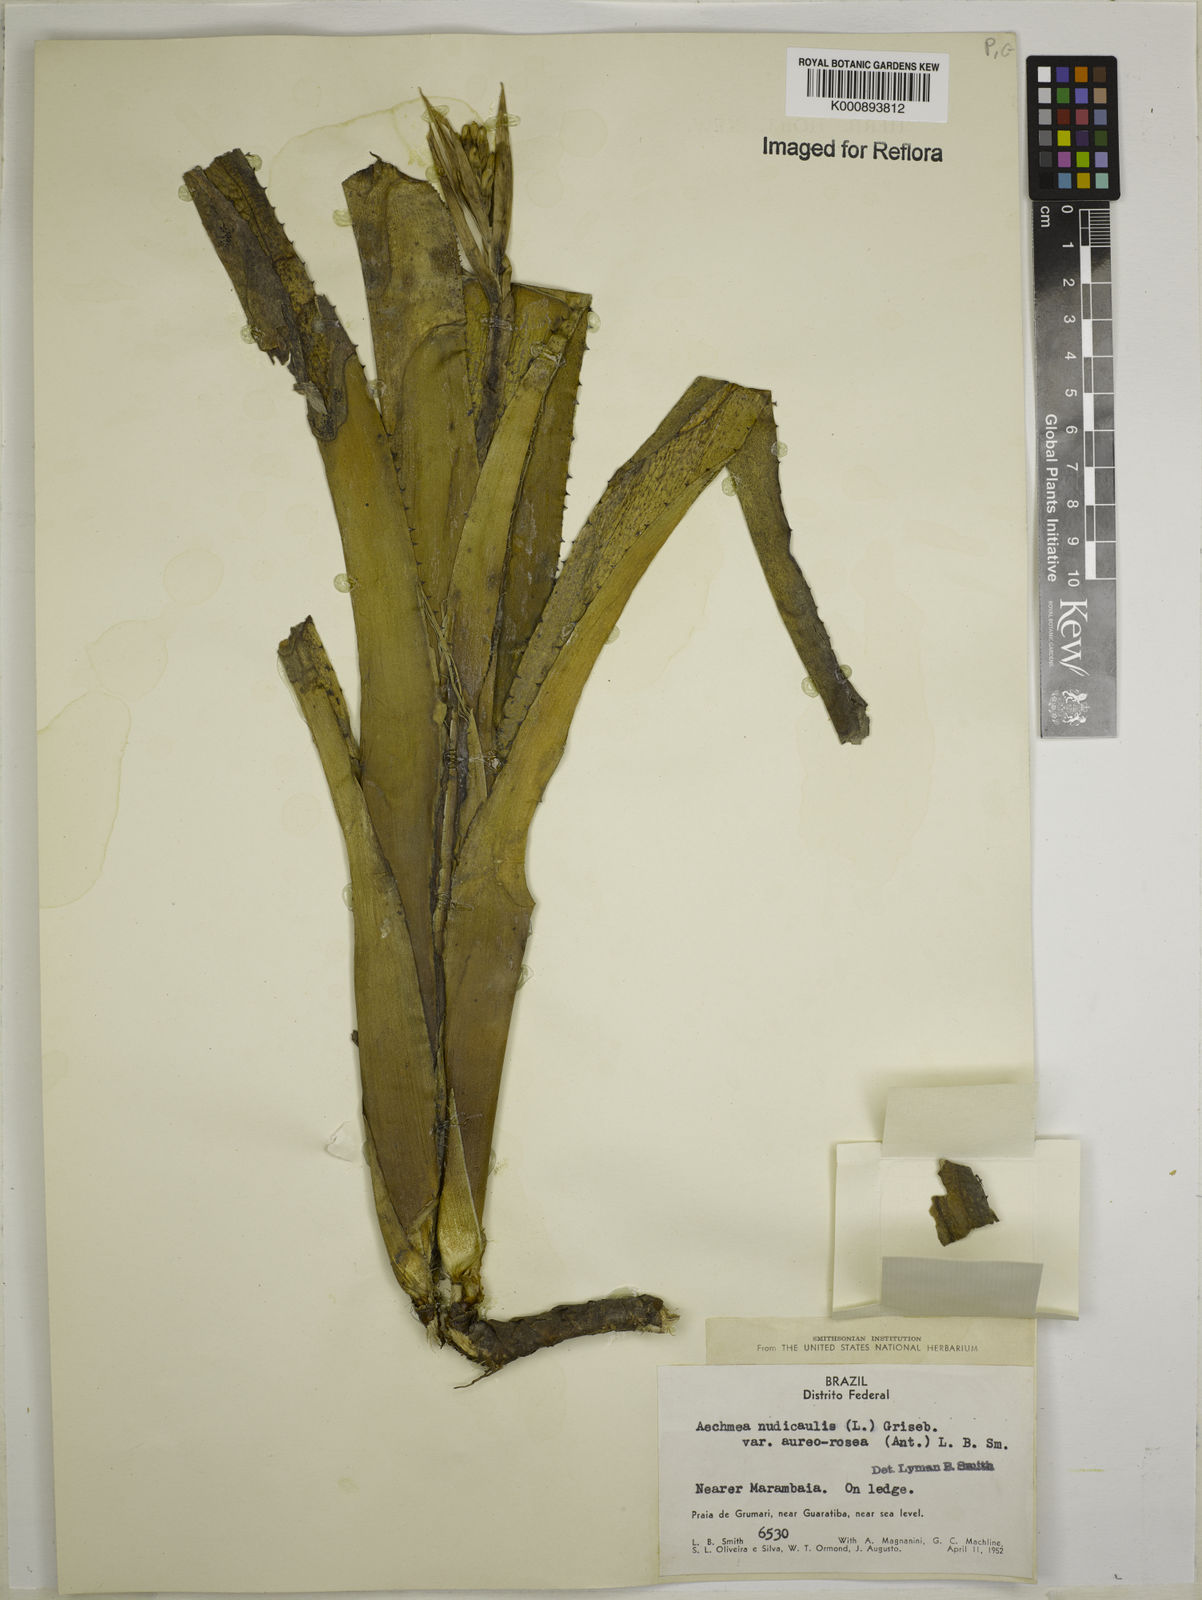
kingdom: Plantae
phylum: Tracheophyta
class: Liliopsida
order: Poales
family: Bromeliaceae
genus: Aechmea
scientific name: Aechmea nudicaulis
